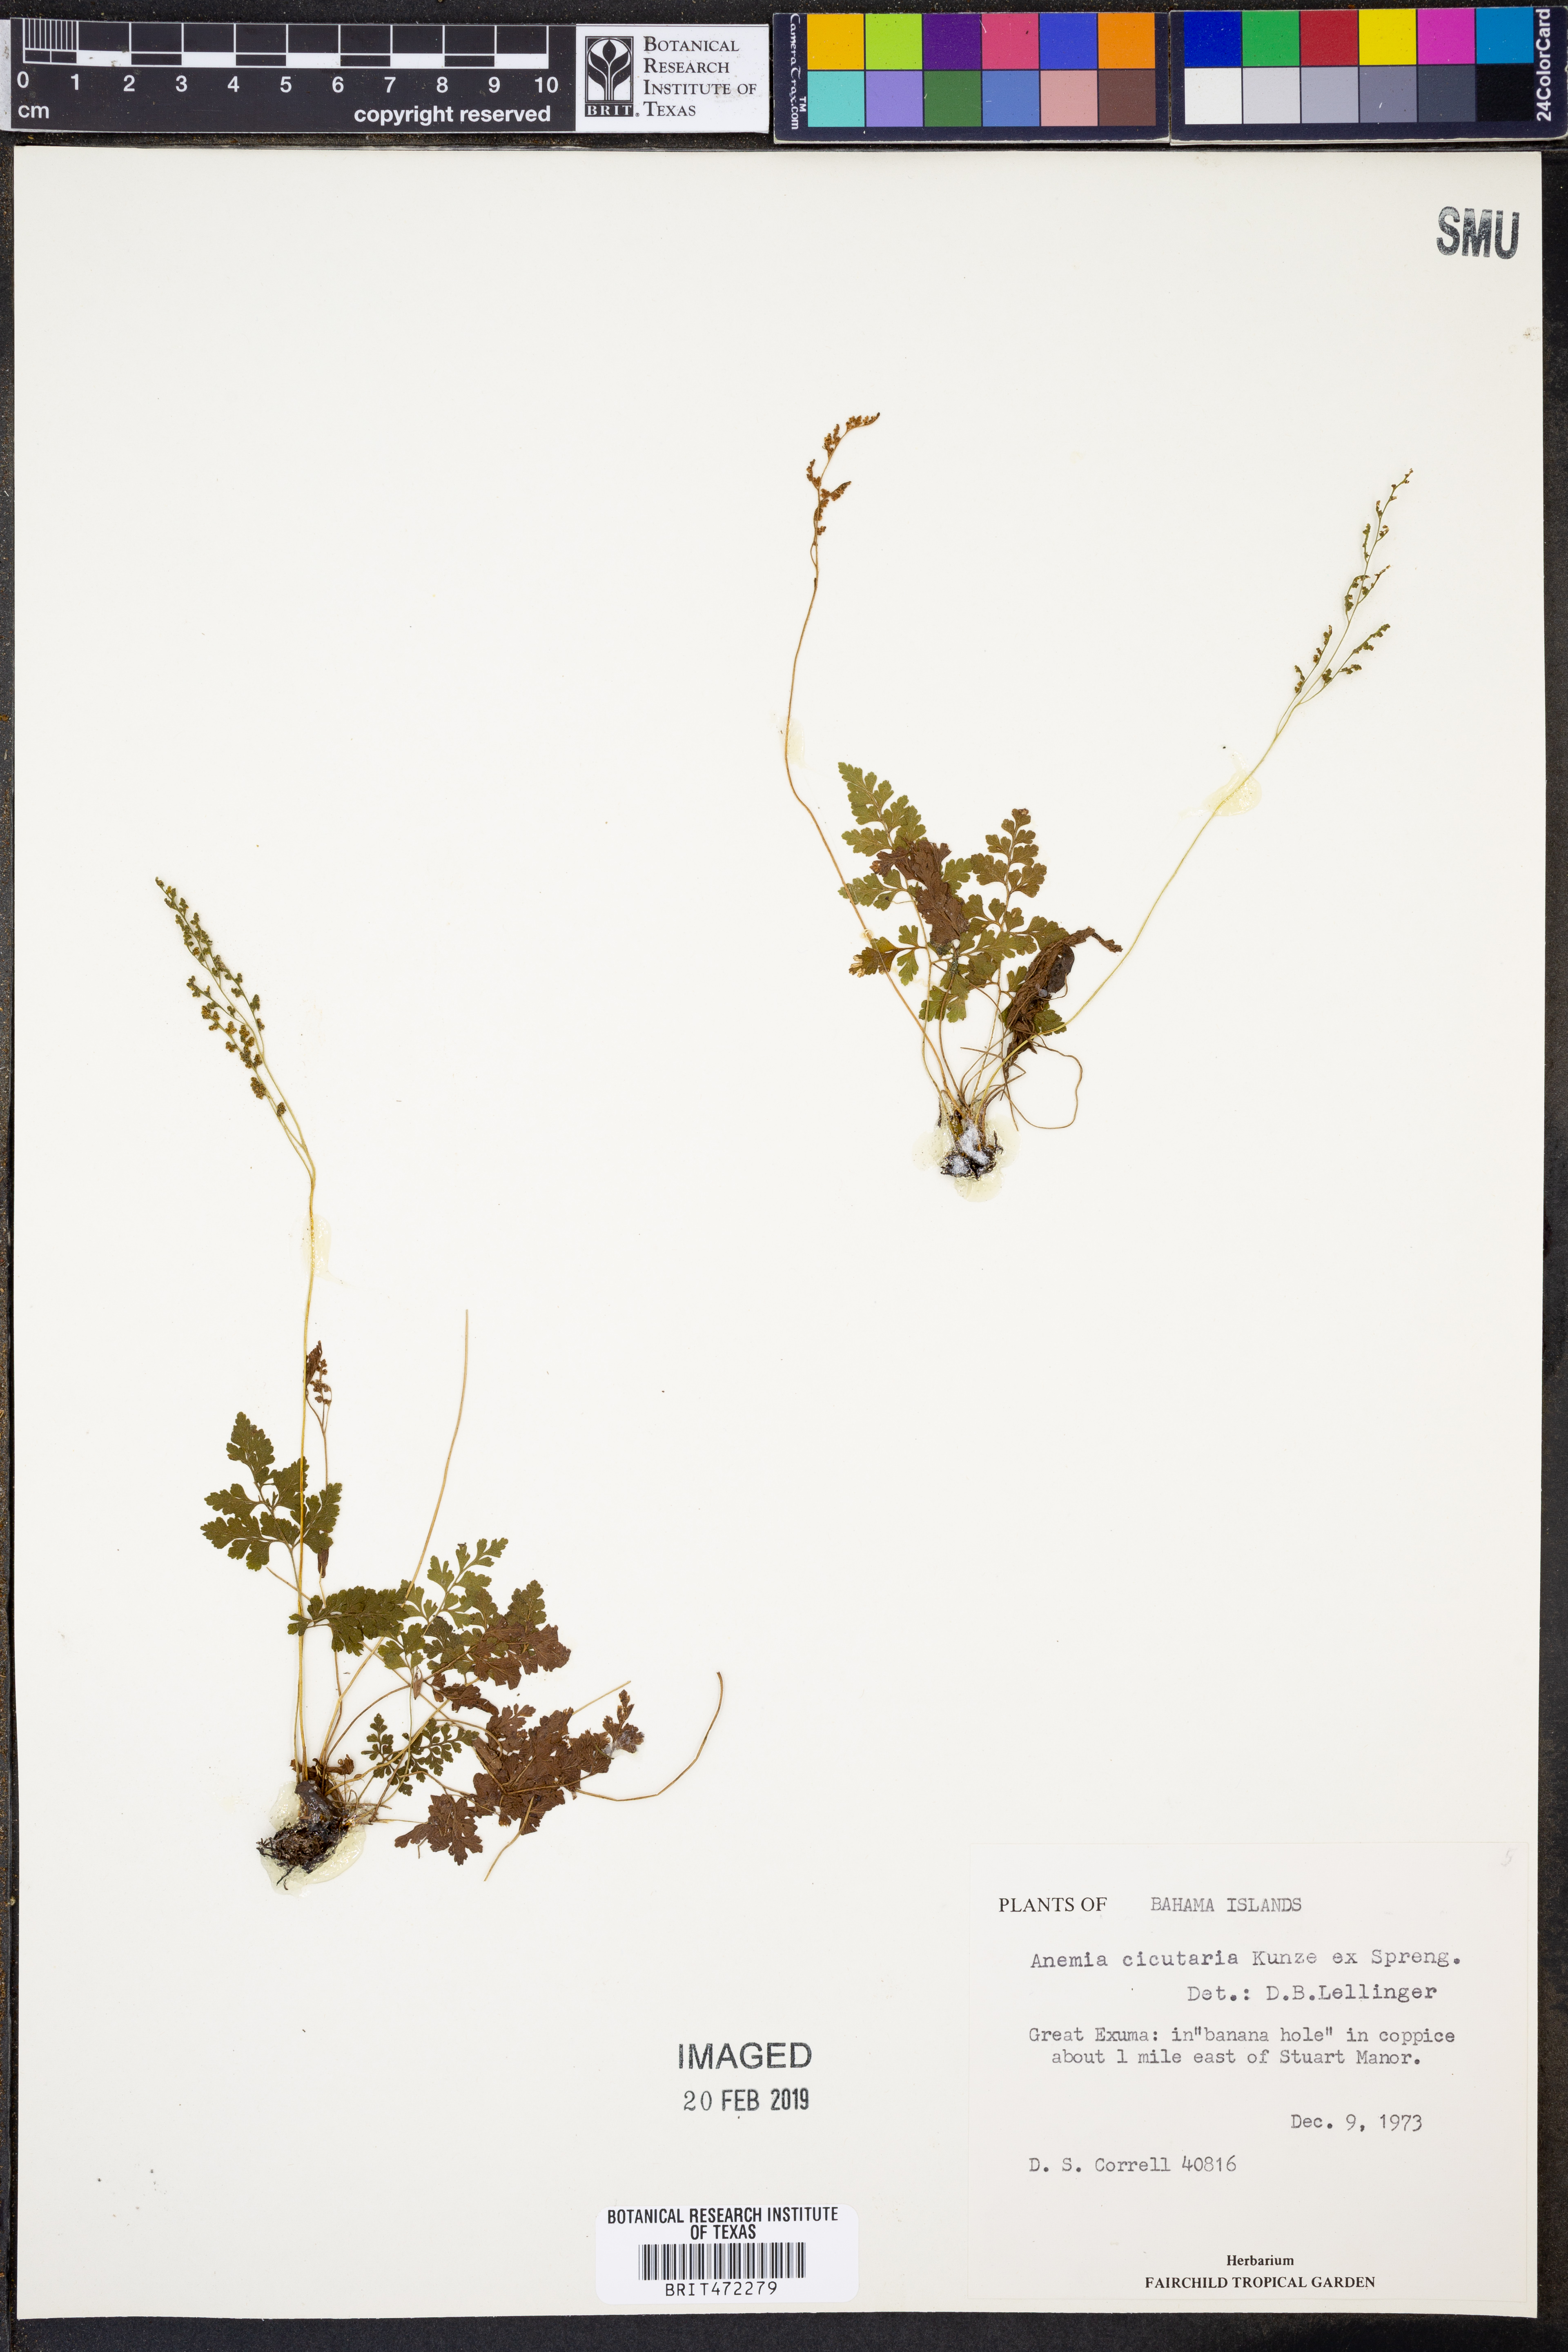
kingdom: Plantae
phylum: Tracheophyta
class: Polypodiopsida
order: Schizaeales
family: Anemiaceae
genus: Anemia
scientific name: Anemia cicutaria
